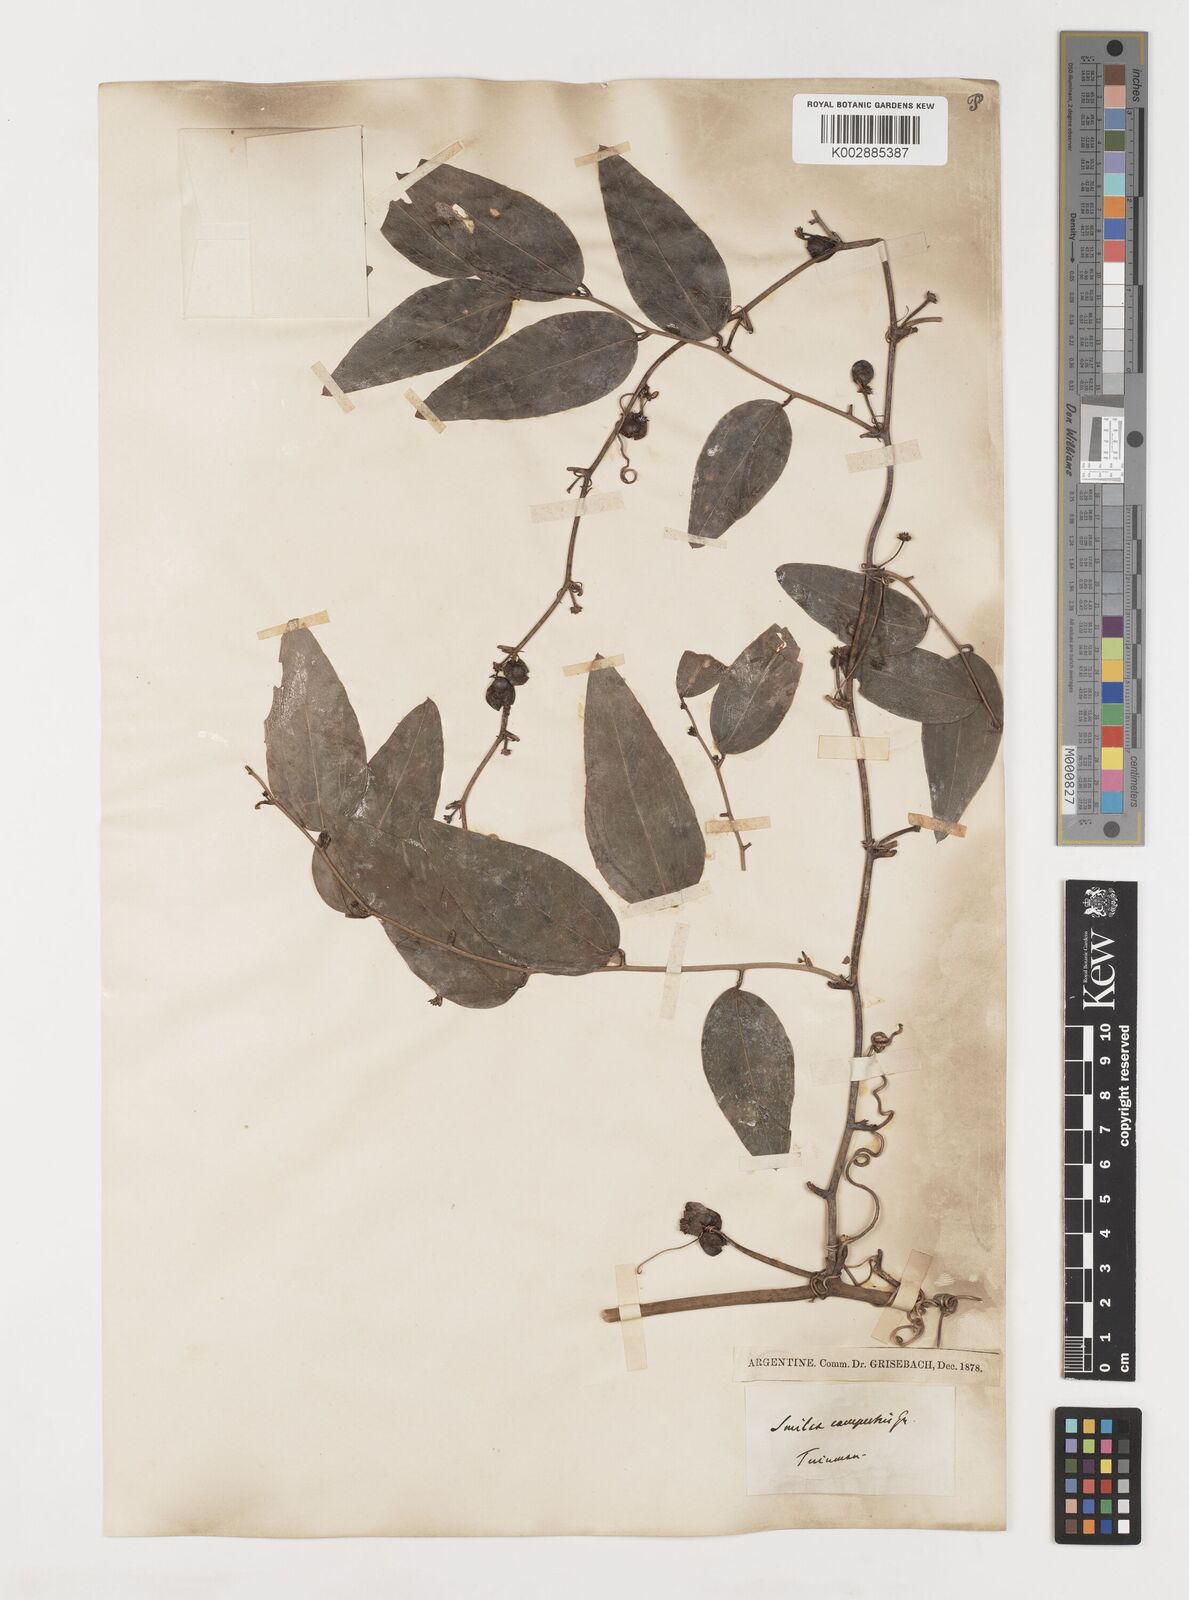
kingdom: Plantae
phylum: Tracheophyta
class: Liliopsida
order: Liliales
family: Smilacaceae
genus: Smilax
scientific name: Smilax campestris
